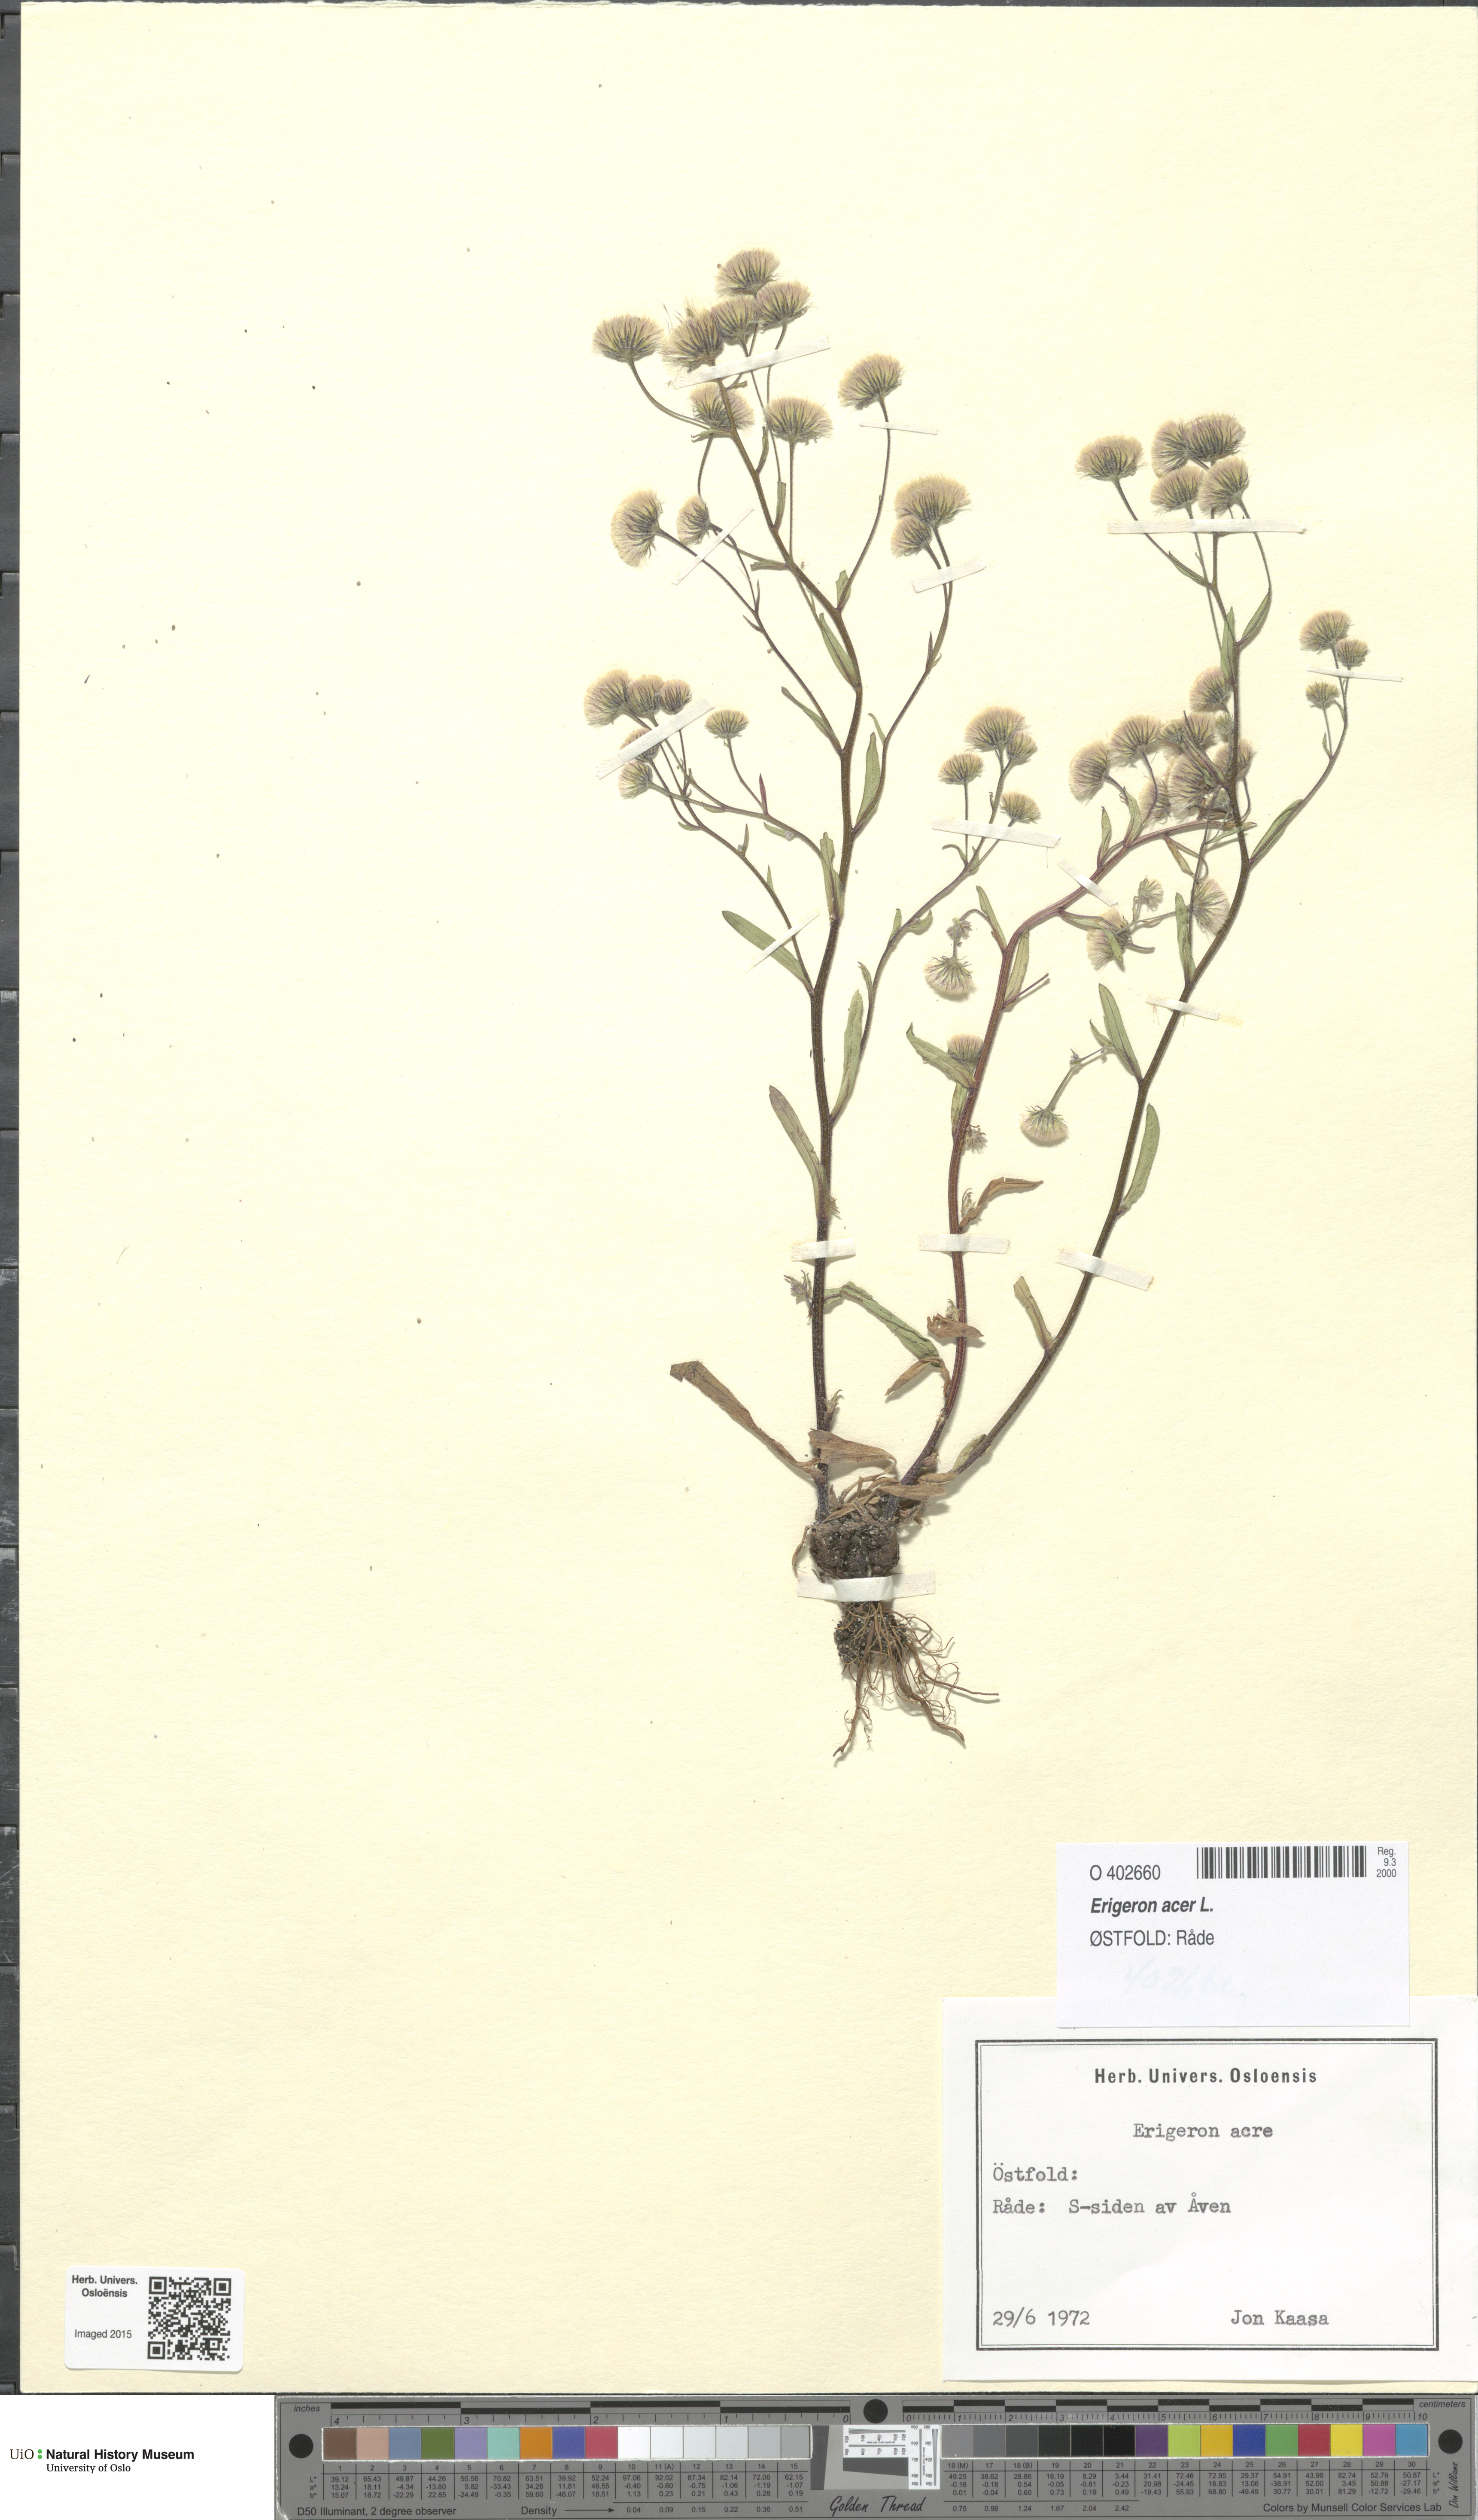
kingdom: Plantae
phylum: Tracheophyta
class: Magnoliopsida
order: Asterales
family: Asteraceae
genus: Erigeron
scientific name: Erigeron acris
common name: Blue fleabane
